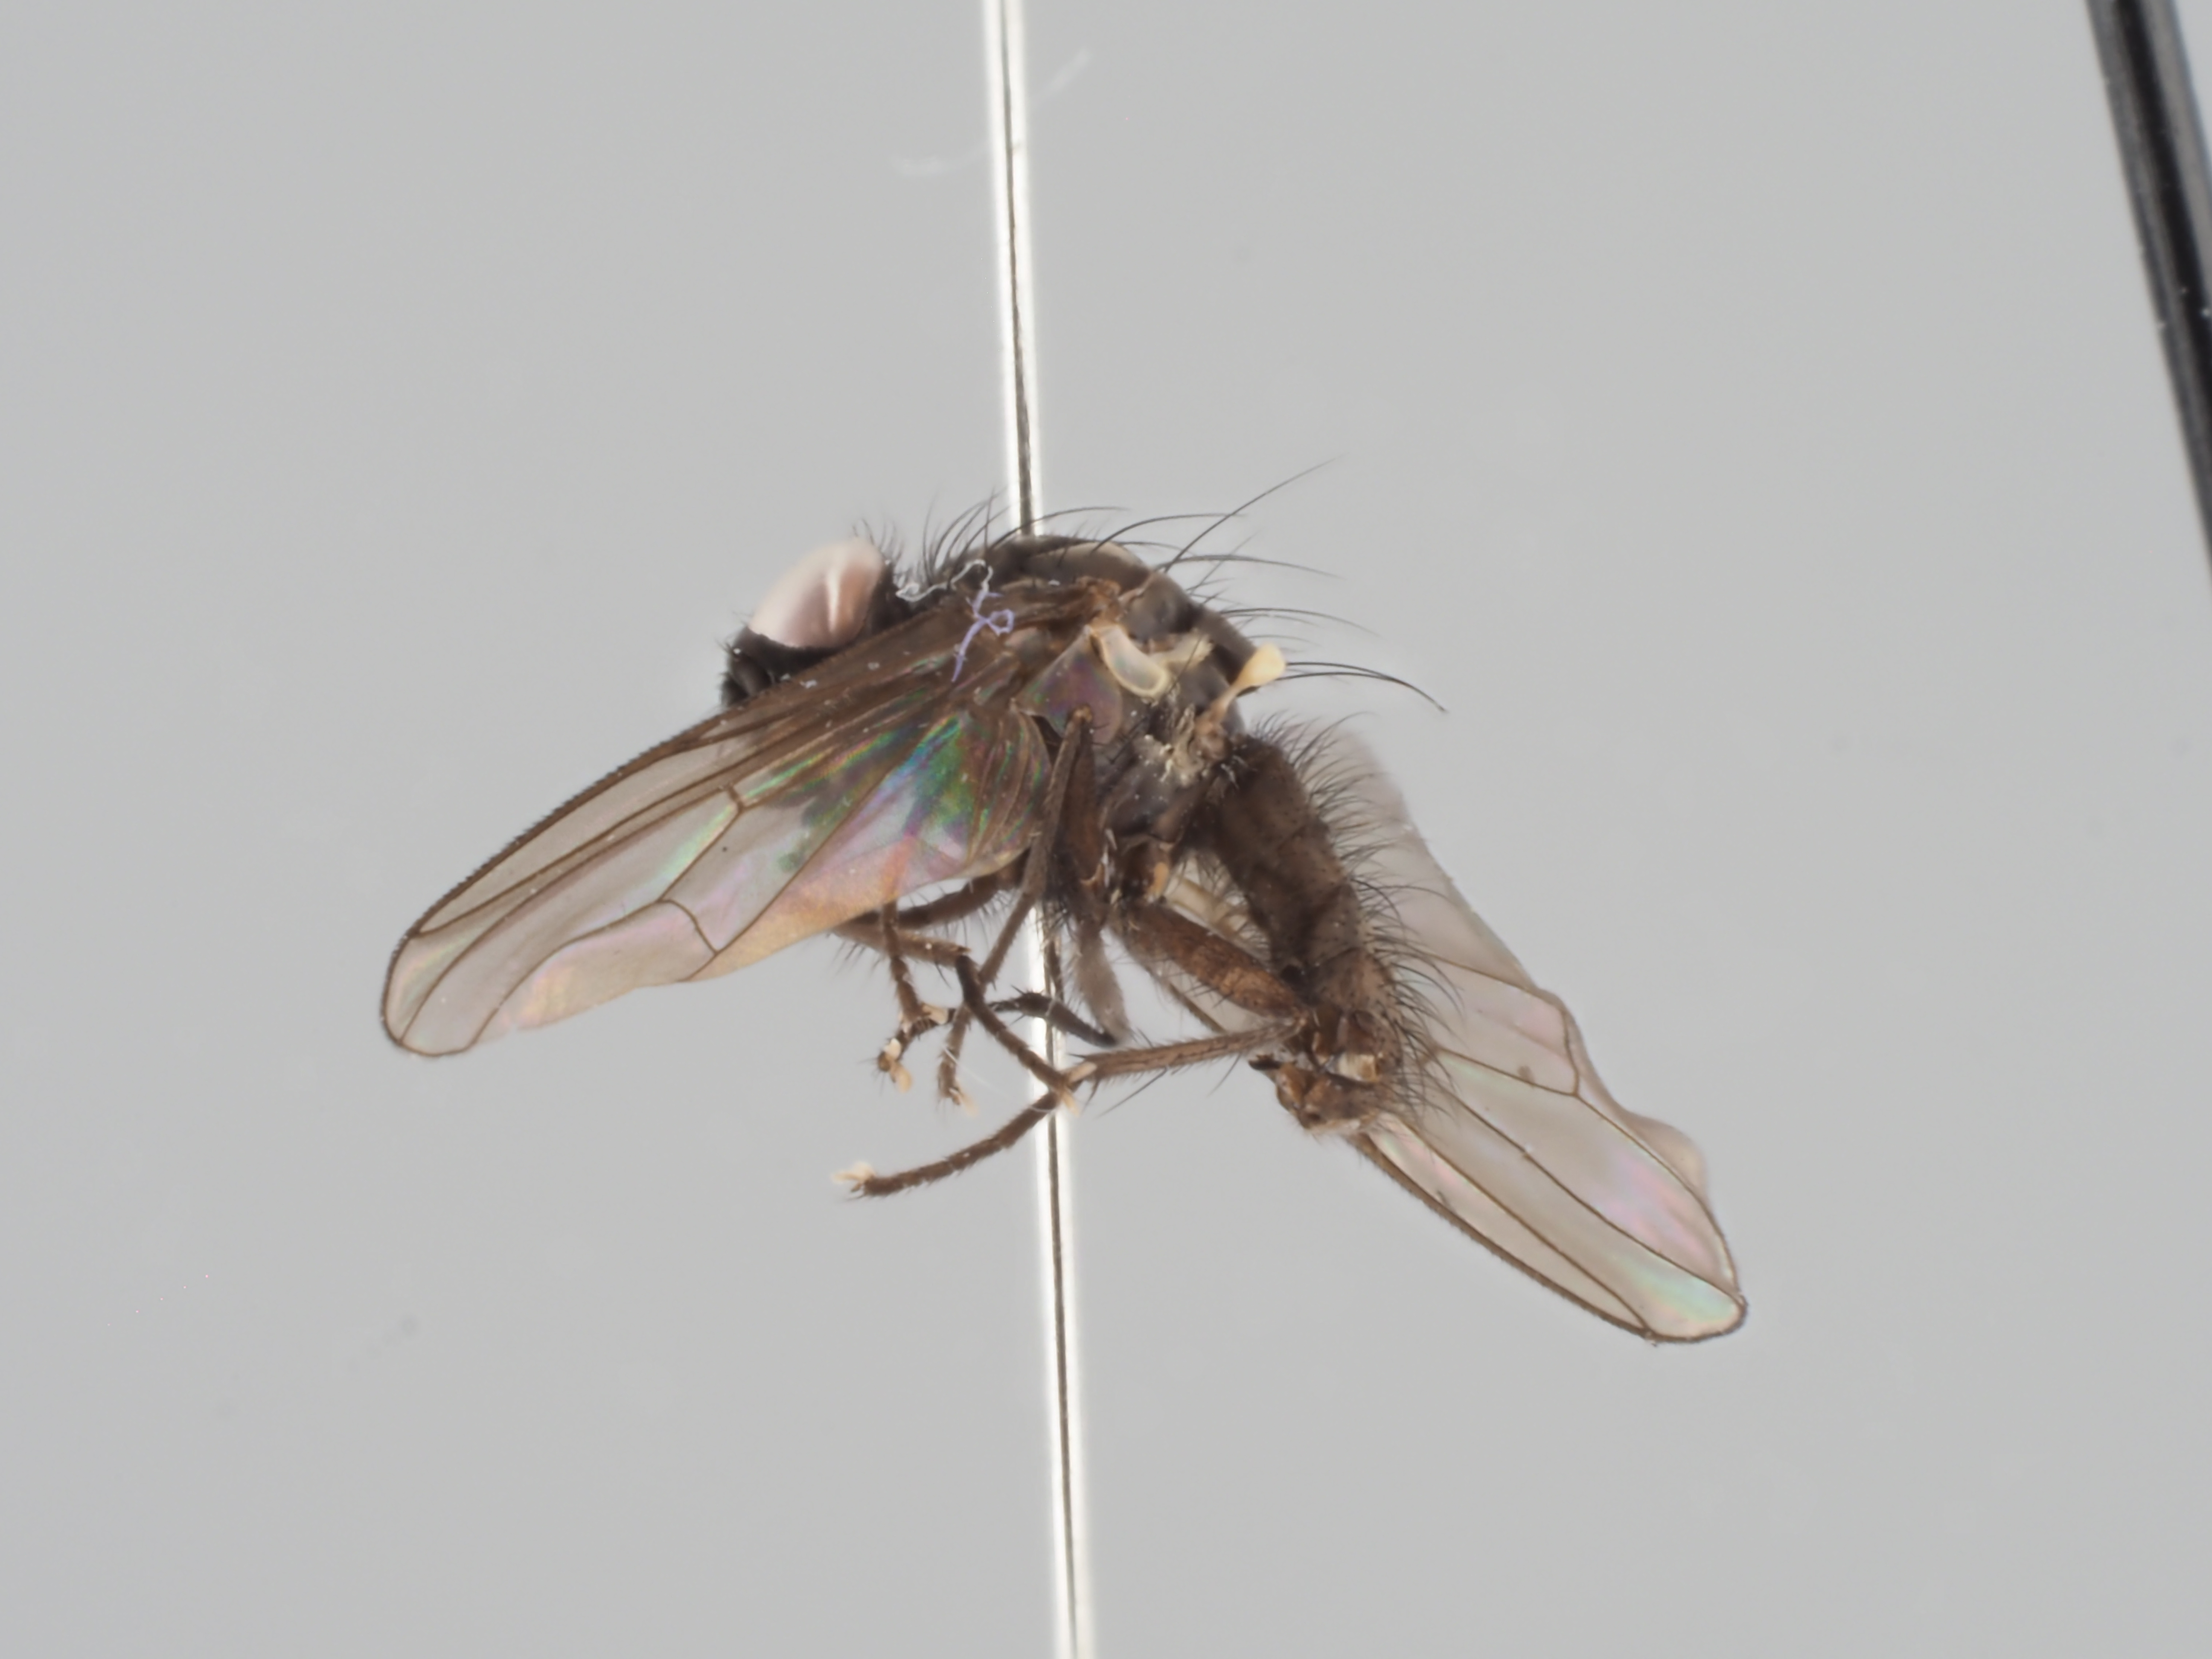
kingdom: Animalia
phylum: Arthropoda
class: Insecta
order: Diptera
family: Anthomyiidae
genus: Pegoplata
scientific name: Pegoplata tundrica
